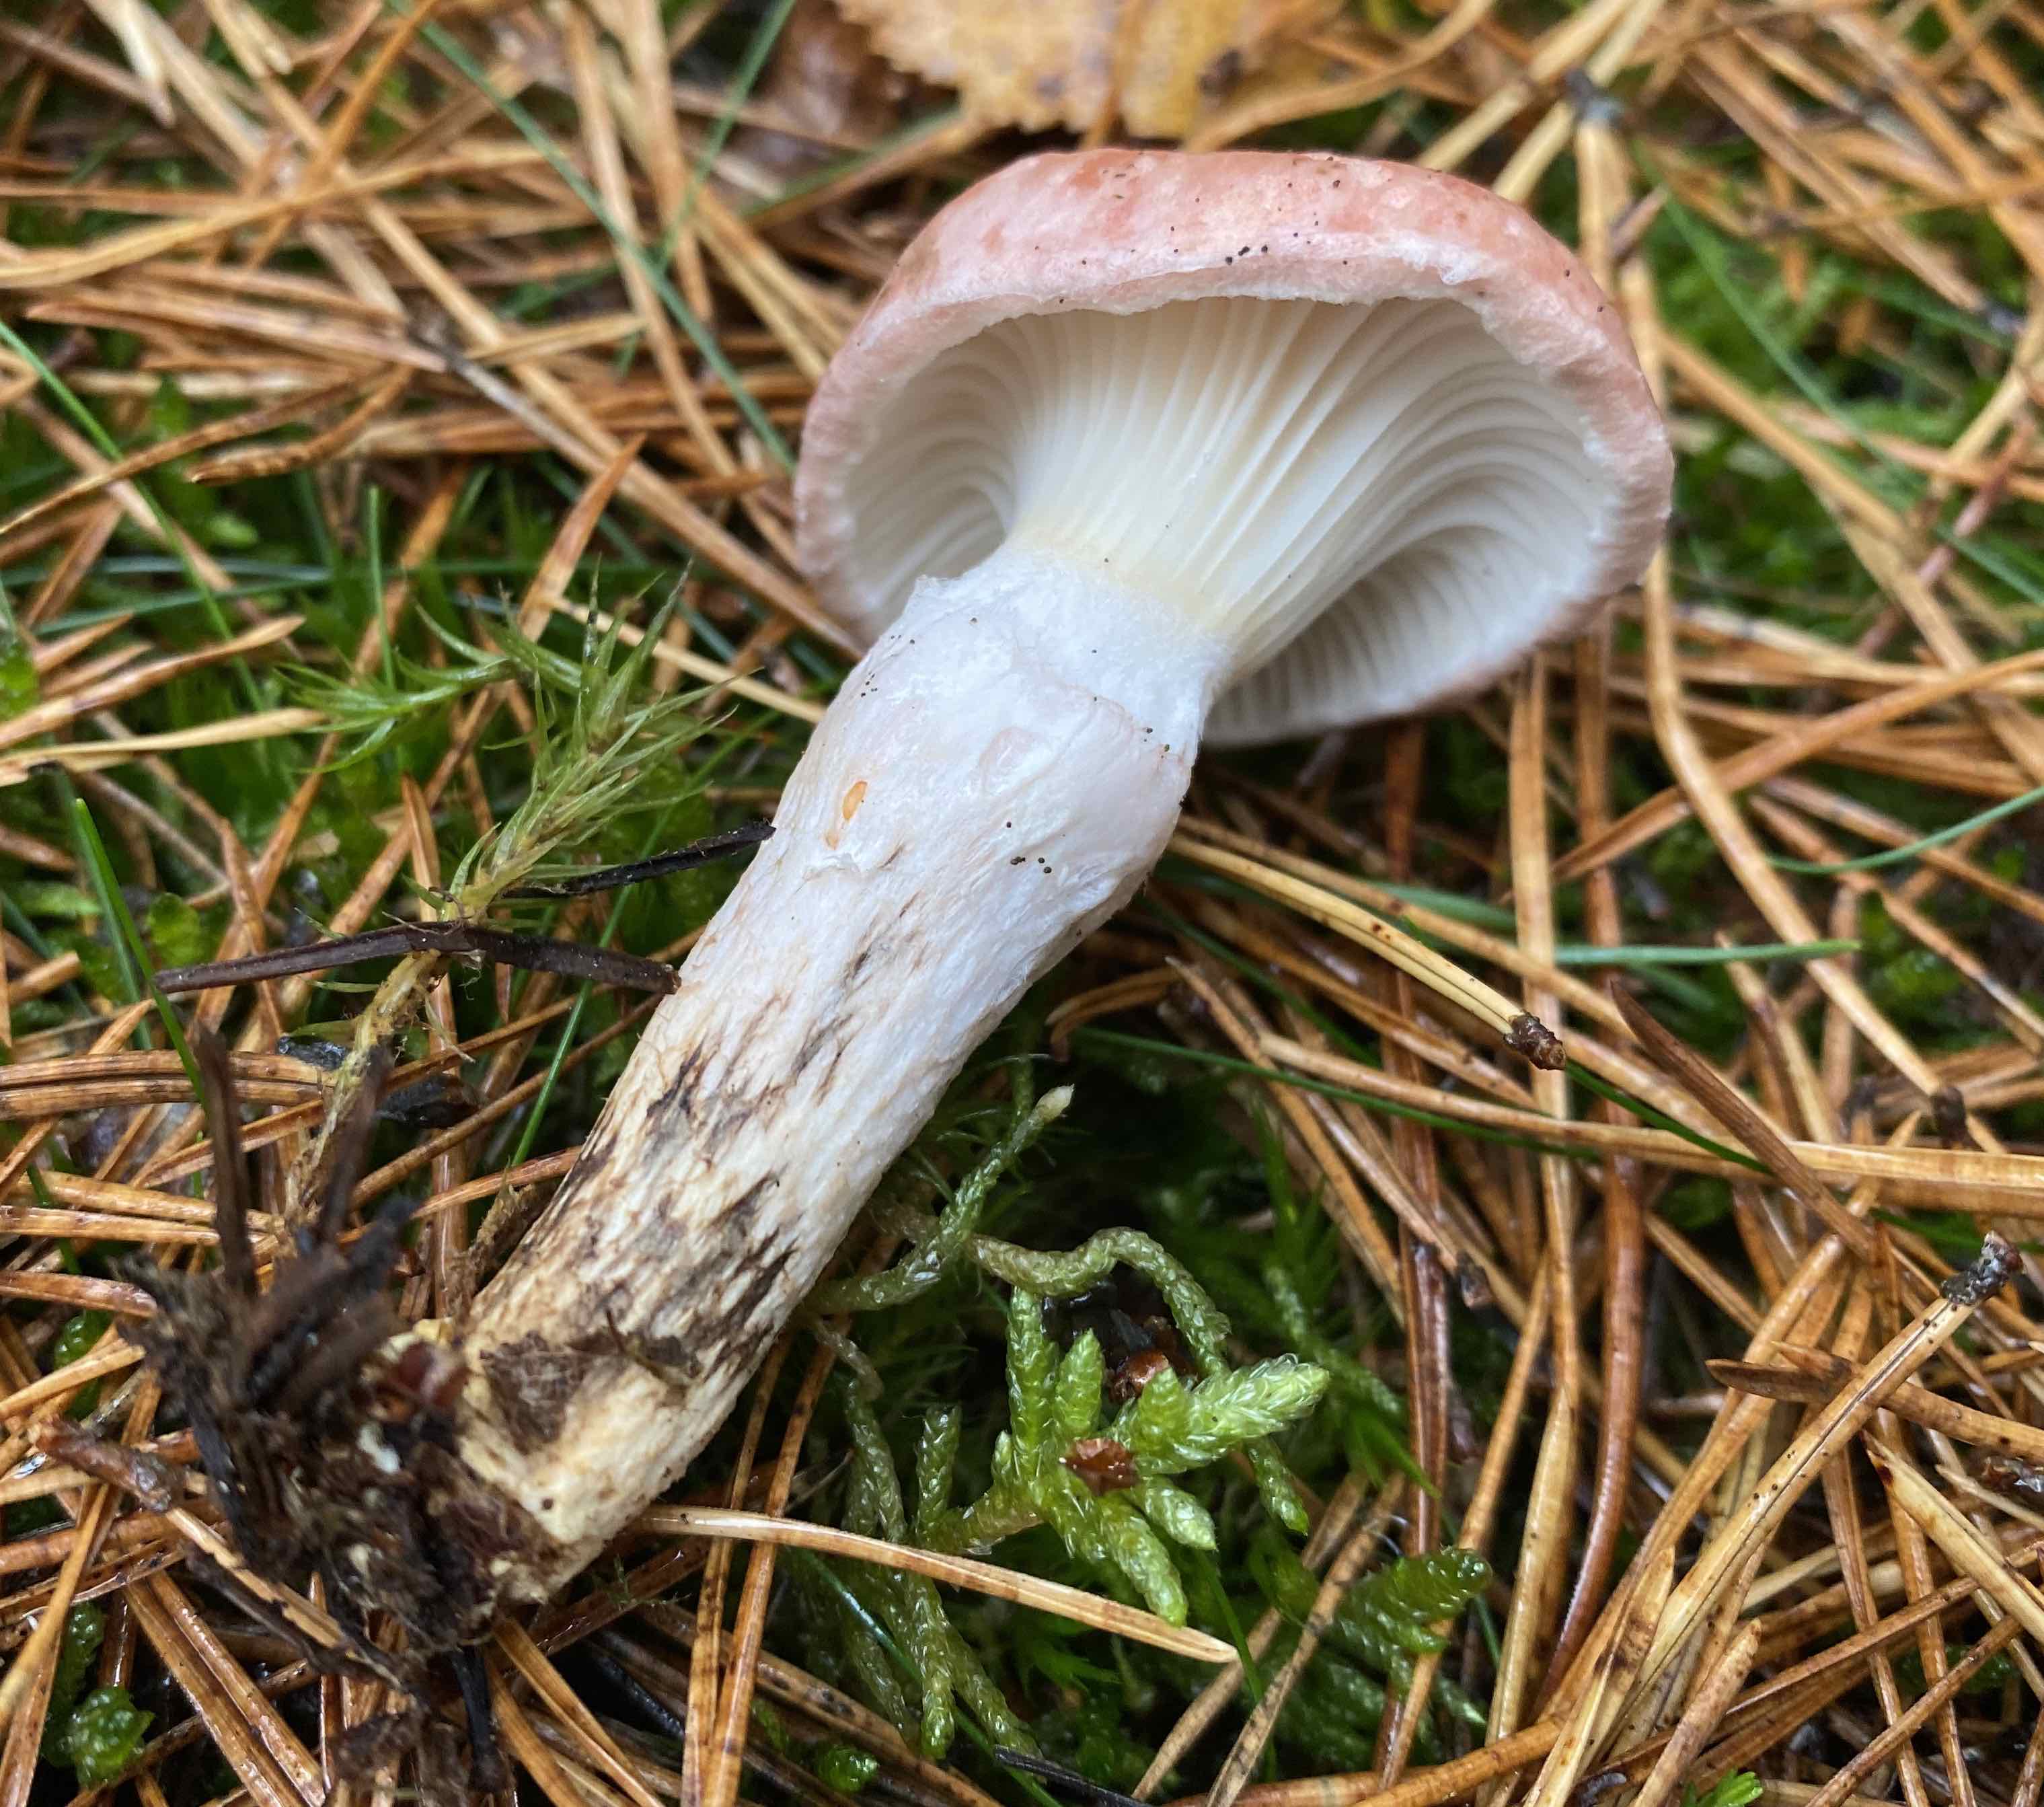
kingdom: Fungi
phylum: Basidiomycota
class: Agaricomycetes
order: Boletales
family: Gomphidiaceae
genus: Gomphidius
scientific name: Gomphidius roseus
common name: rosenrød slimslør
